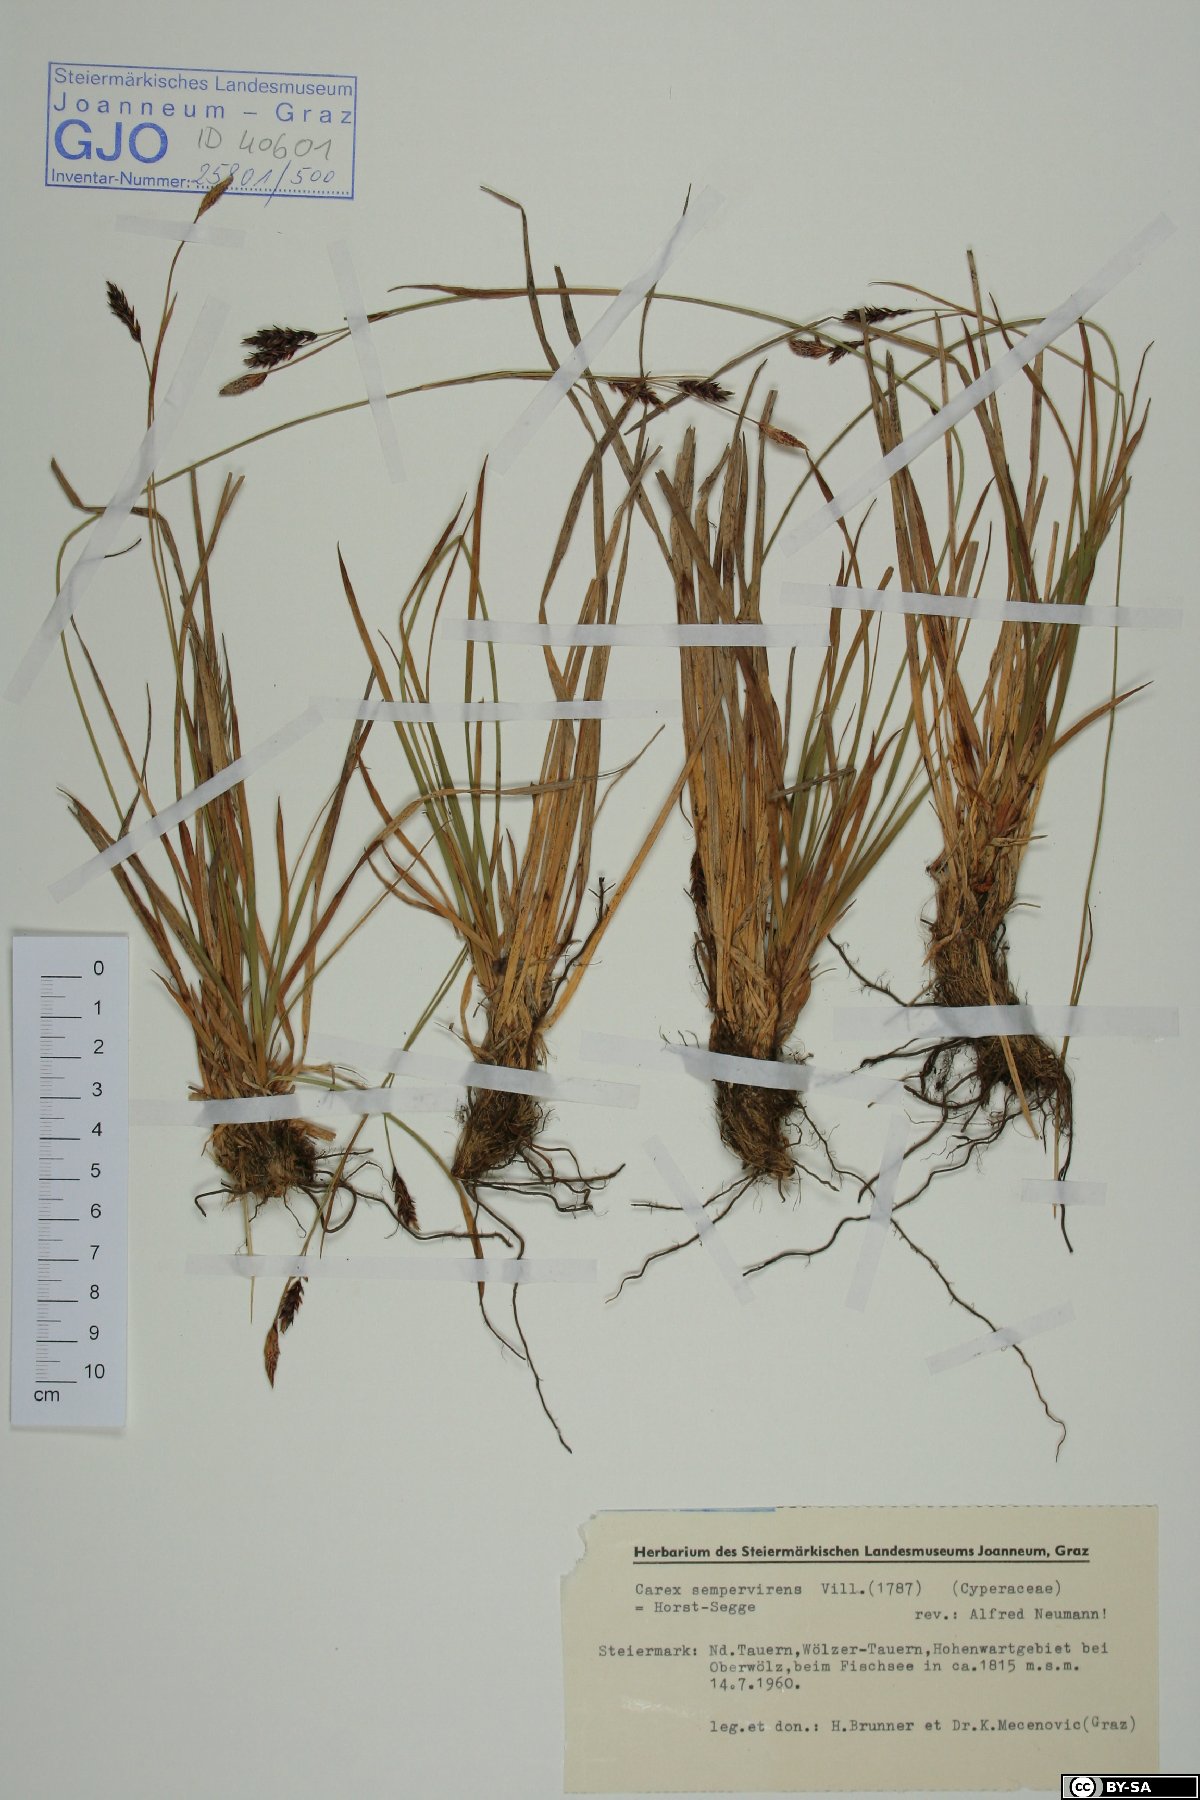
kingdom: Plantae
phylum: Tracheophyta
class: Liliopsida
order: Poales
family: Cyperaceae
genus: Carex
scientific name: Carex sempervirens
